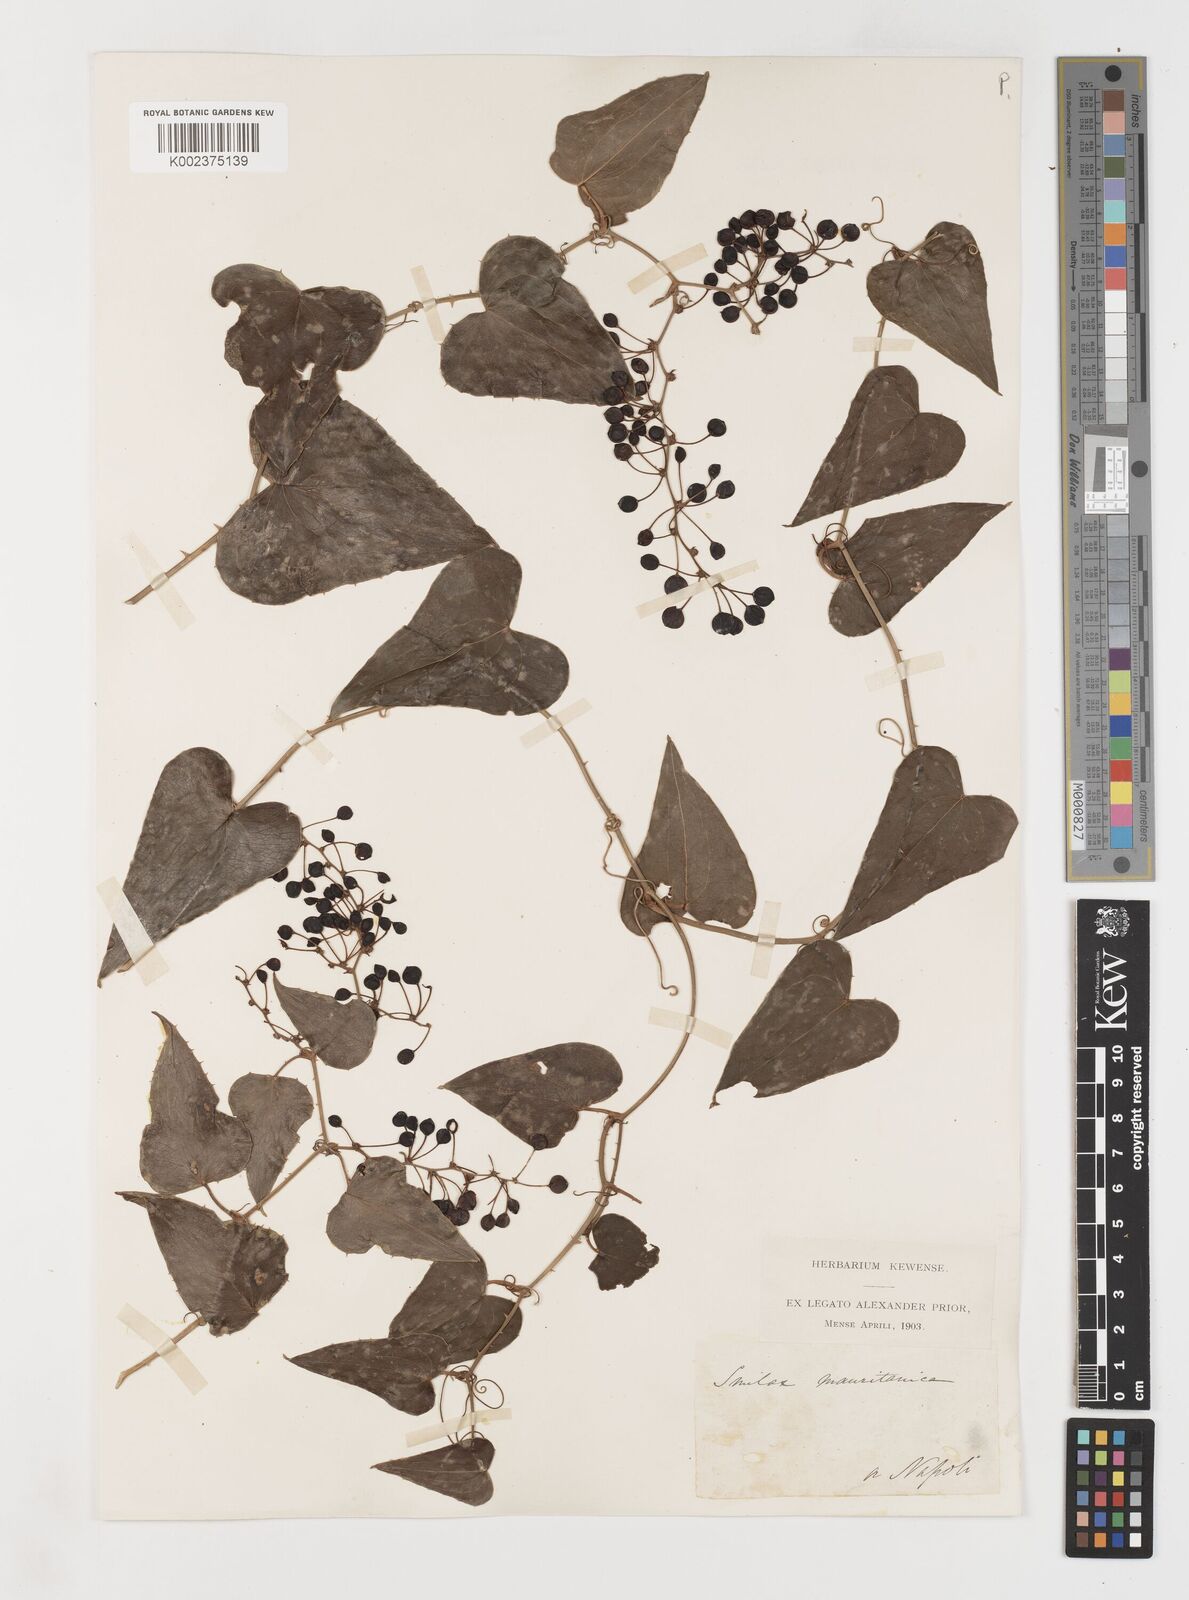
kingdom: Plantae
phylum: Tracheophyta
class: Liliopsida
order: Liliales
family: Smilacaceae
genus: Smilax
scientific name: Smilax aspera
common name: Common smilax
